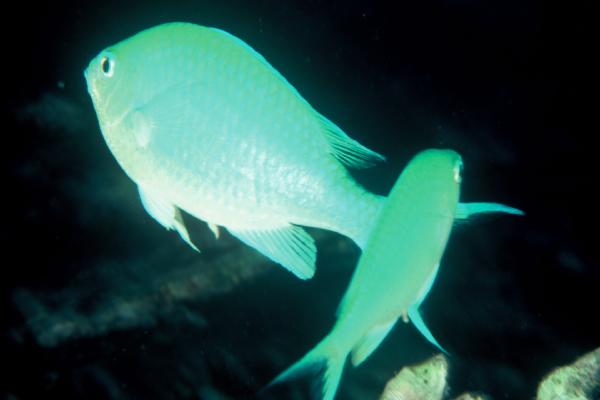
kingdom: Animalia
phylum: Chordata
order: Perciformes
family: Pomacentridae
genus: Chrysiptera
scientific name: Chrysiptera glauca
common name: Grey demoiselle
